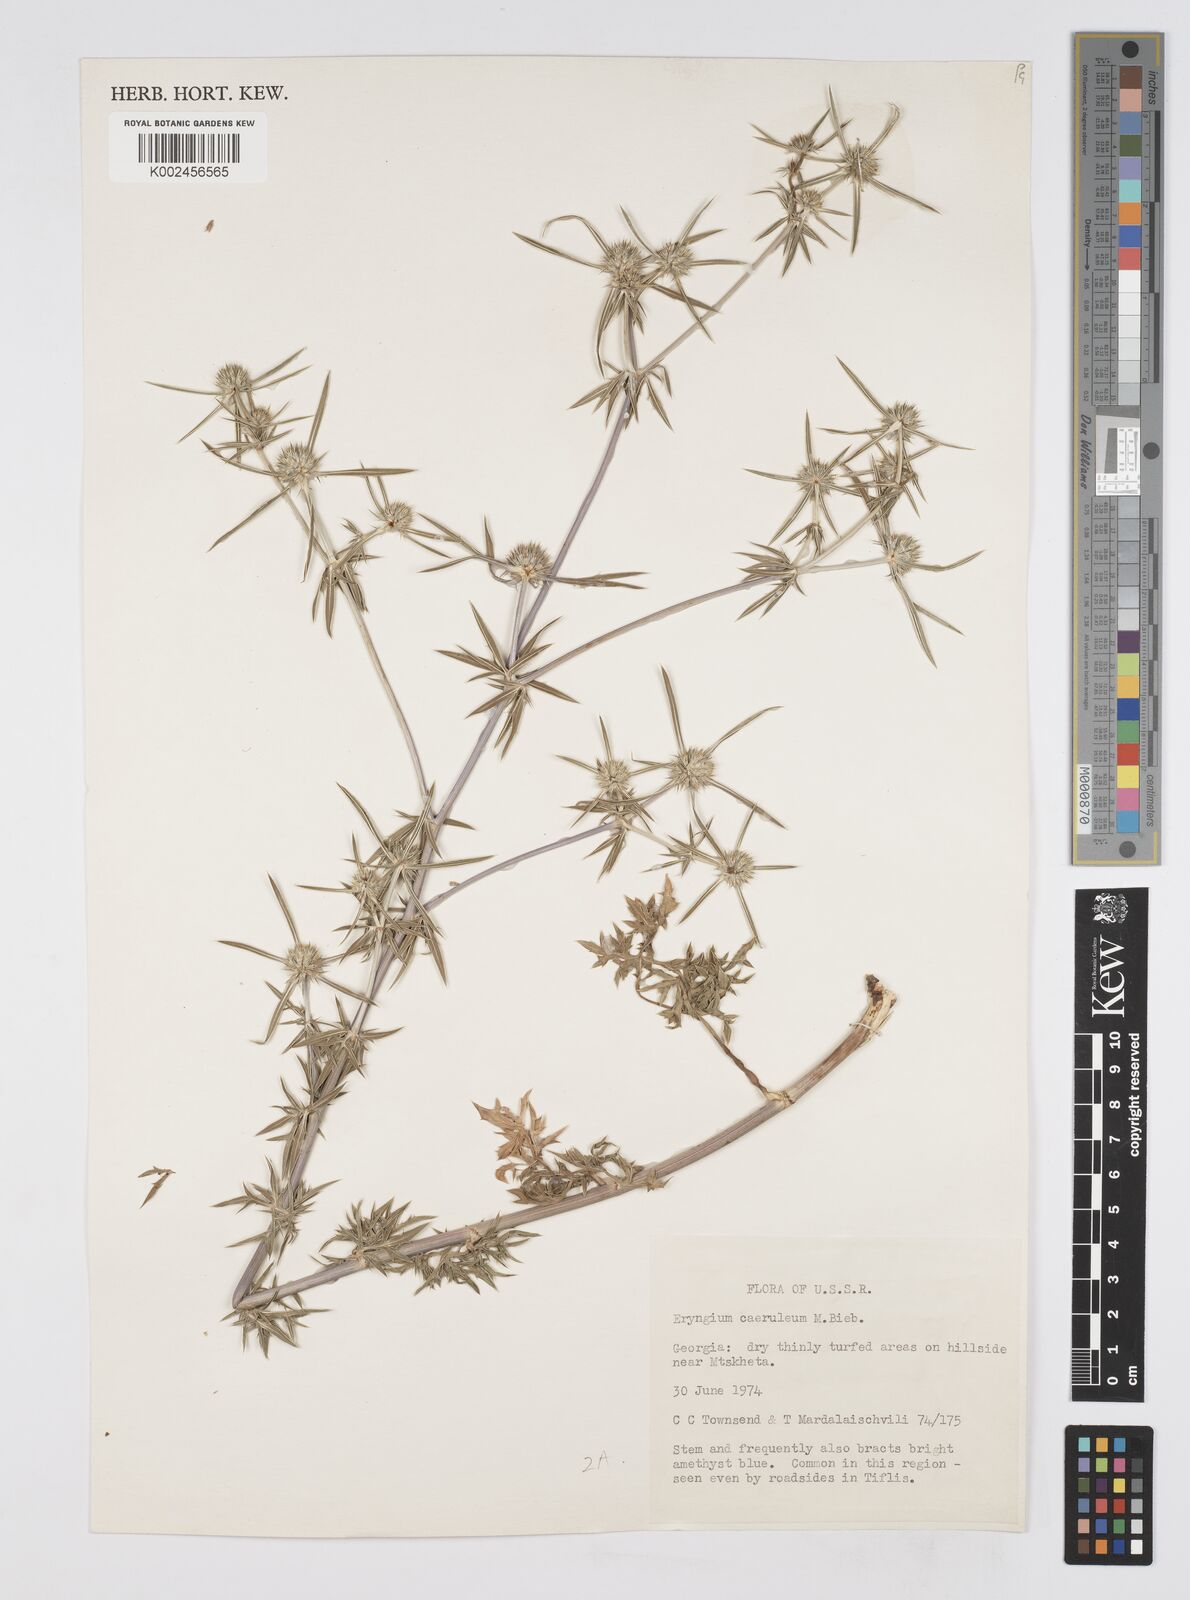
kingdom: Plantae
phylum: Tracheophyta
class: Magnoliopsida
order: Apiales
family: Apiaceae
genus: Eryngium
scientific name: Eryngium caeruleum
